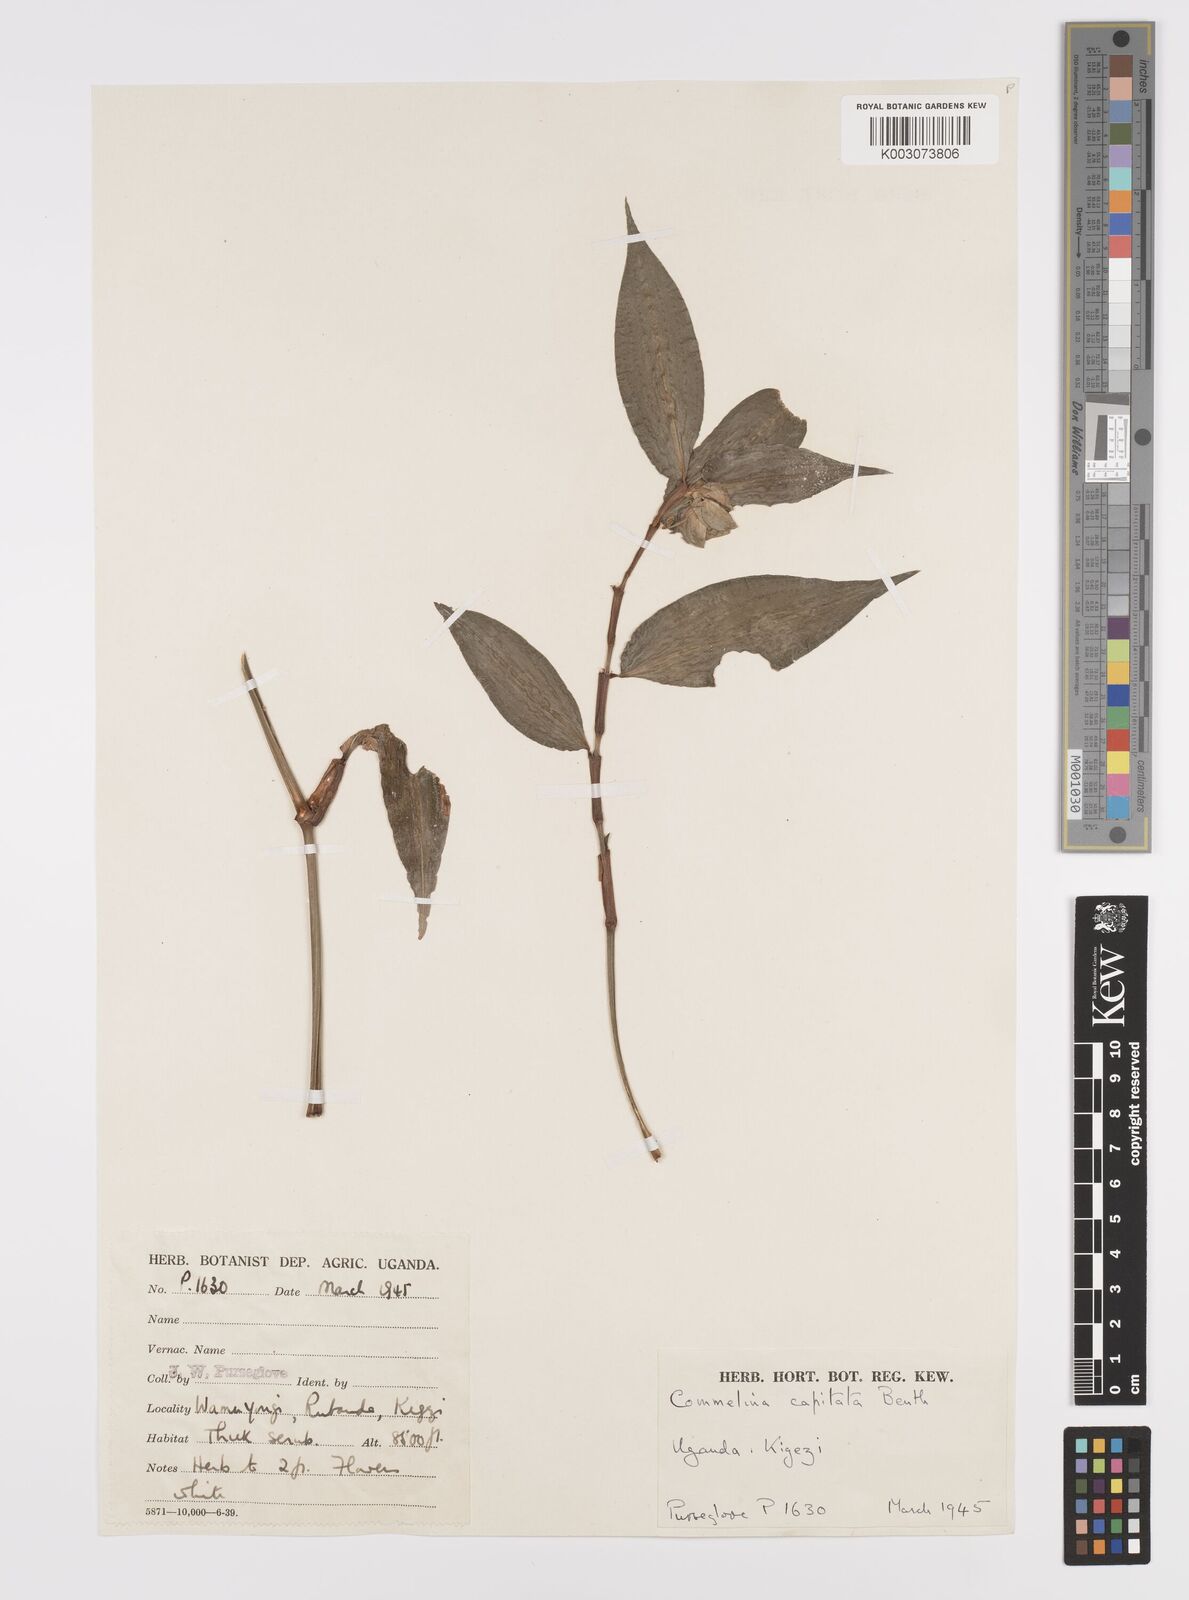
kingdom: Plantae
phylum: Tracheophyta
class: Liliopsida
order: Commelinales
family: Commelinaceae
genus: Commelina
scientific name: Commelina capitata
